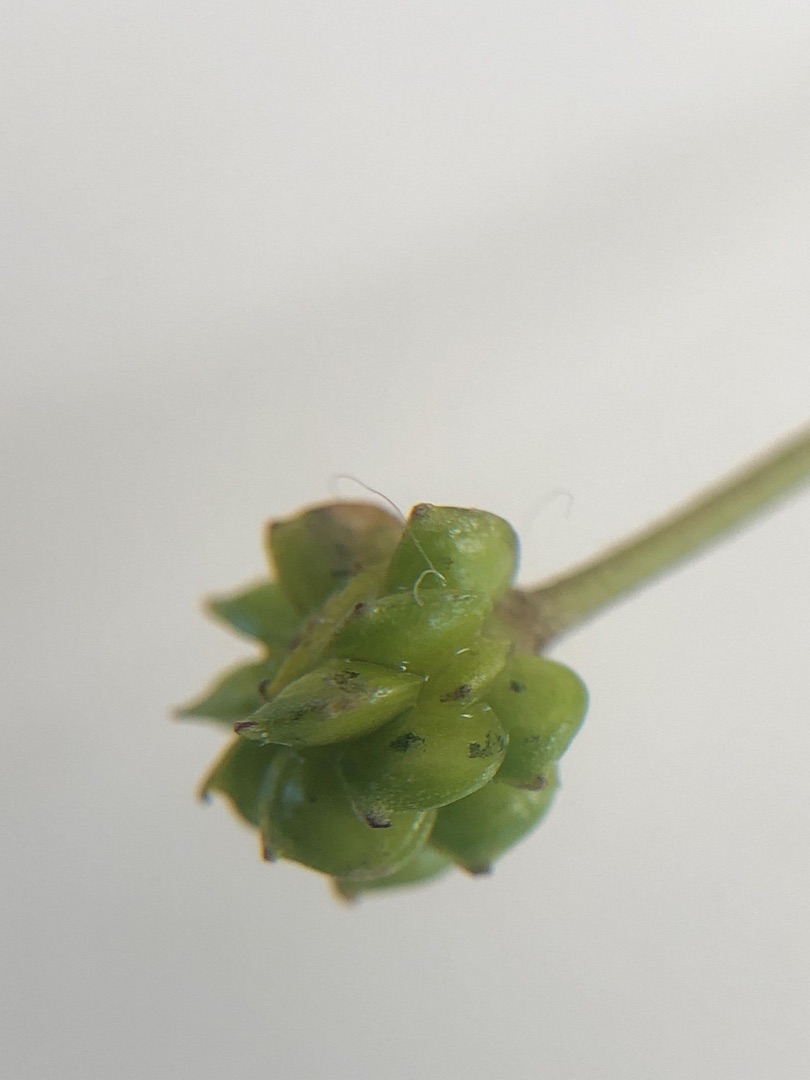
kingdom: Plantae
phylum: Tracheophyta
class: Magnoliopsida
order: Ranunculales
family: Ranunculaceae
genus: Ranunculus
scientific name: Ranunculus acris
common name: Bidende ranunkel
